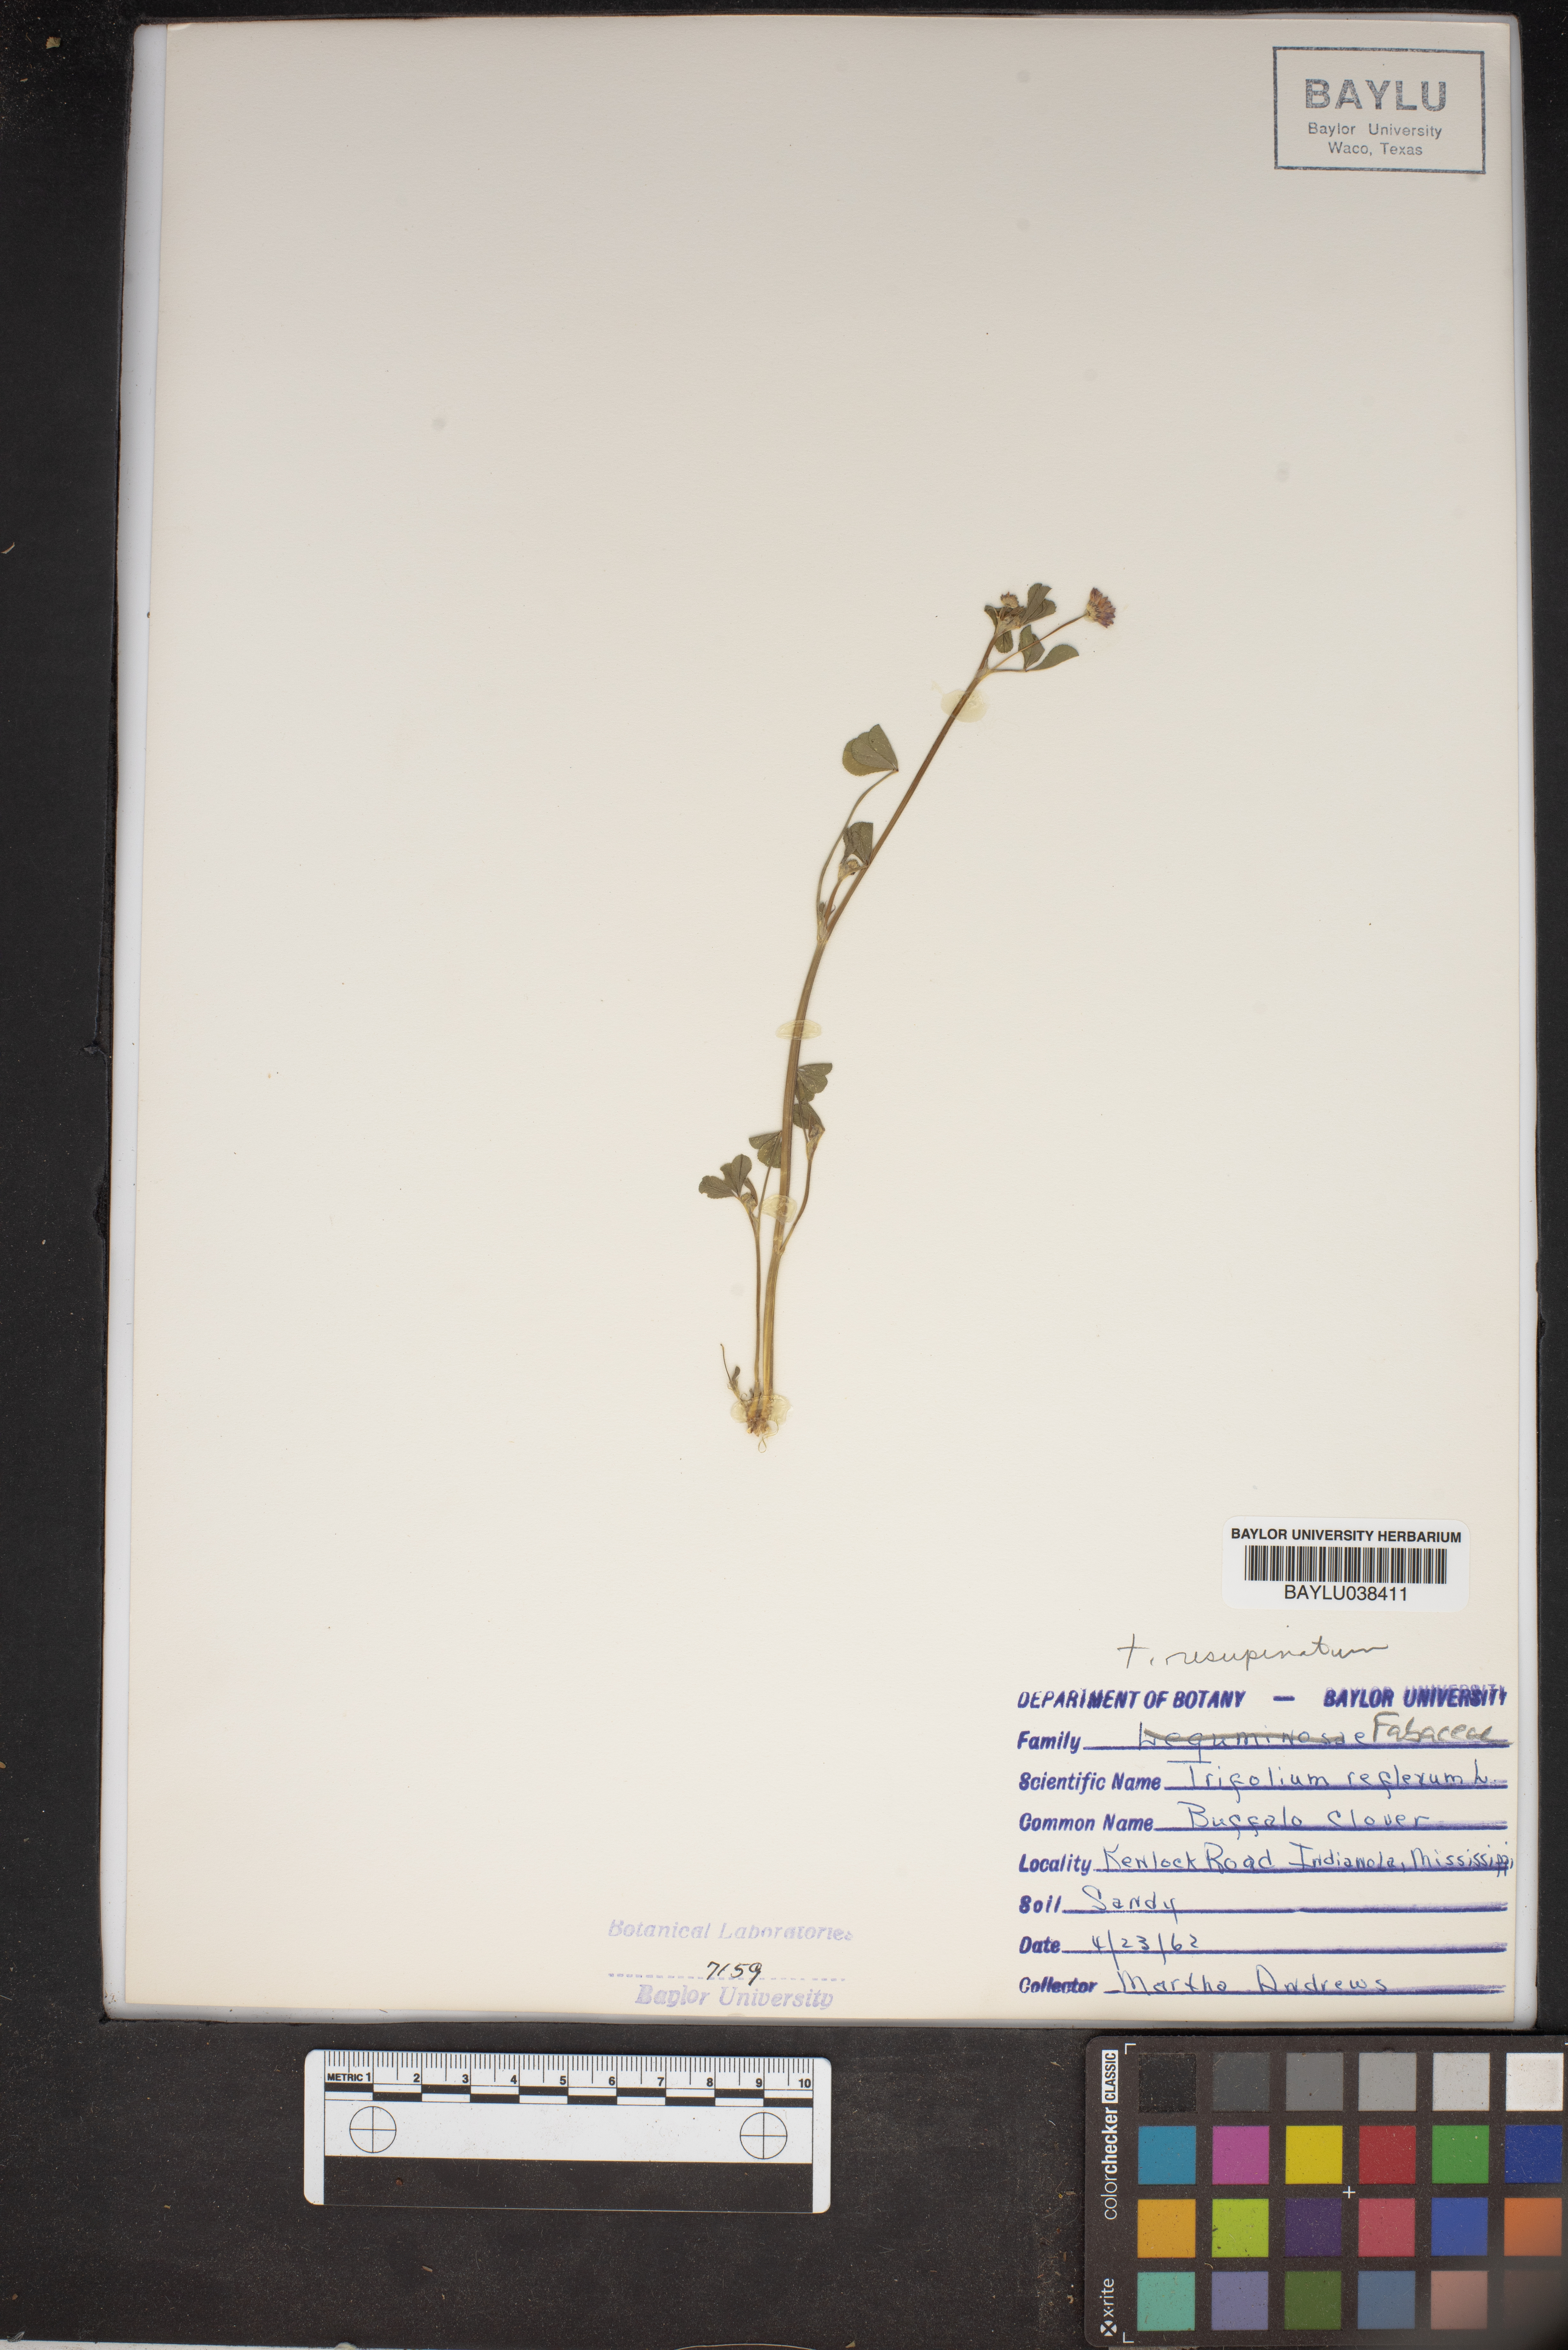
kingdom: Plantae
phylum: Tracheophyta
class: Magnoliopsida
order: Fabales
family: Fabaceae
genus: Trifolium
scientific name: Trifolium reflexum
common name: Buffalo clover
